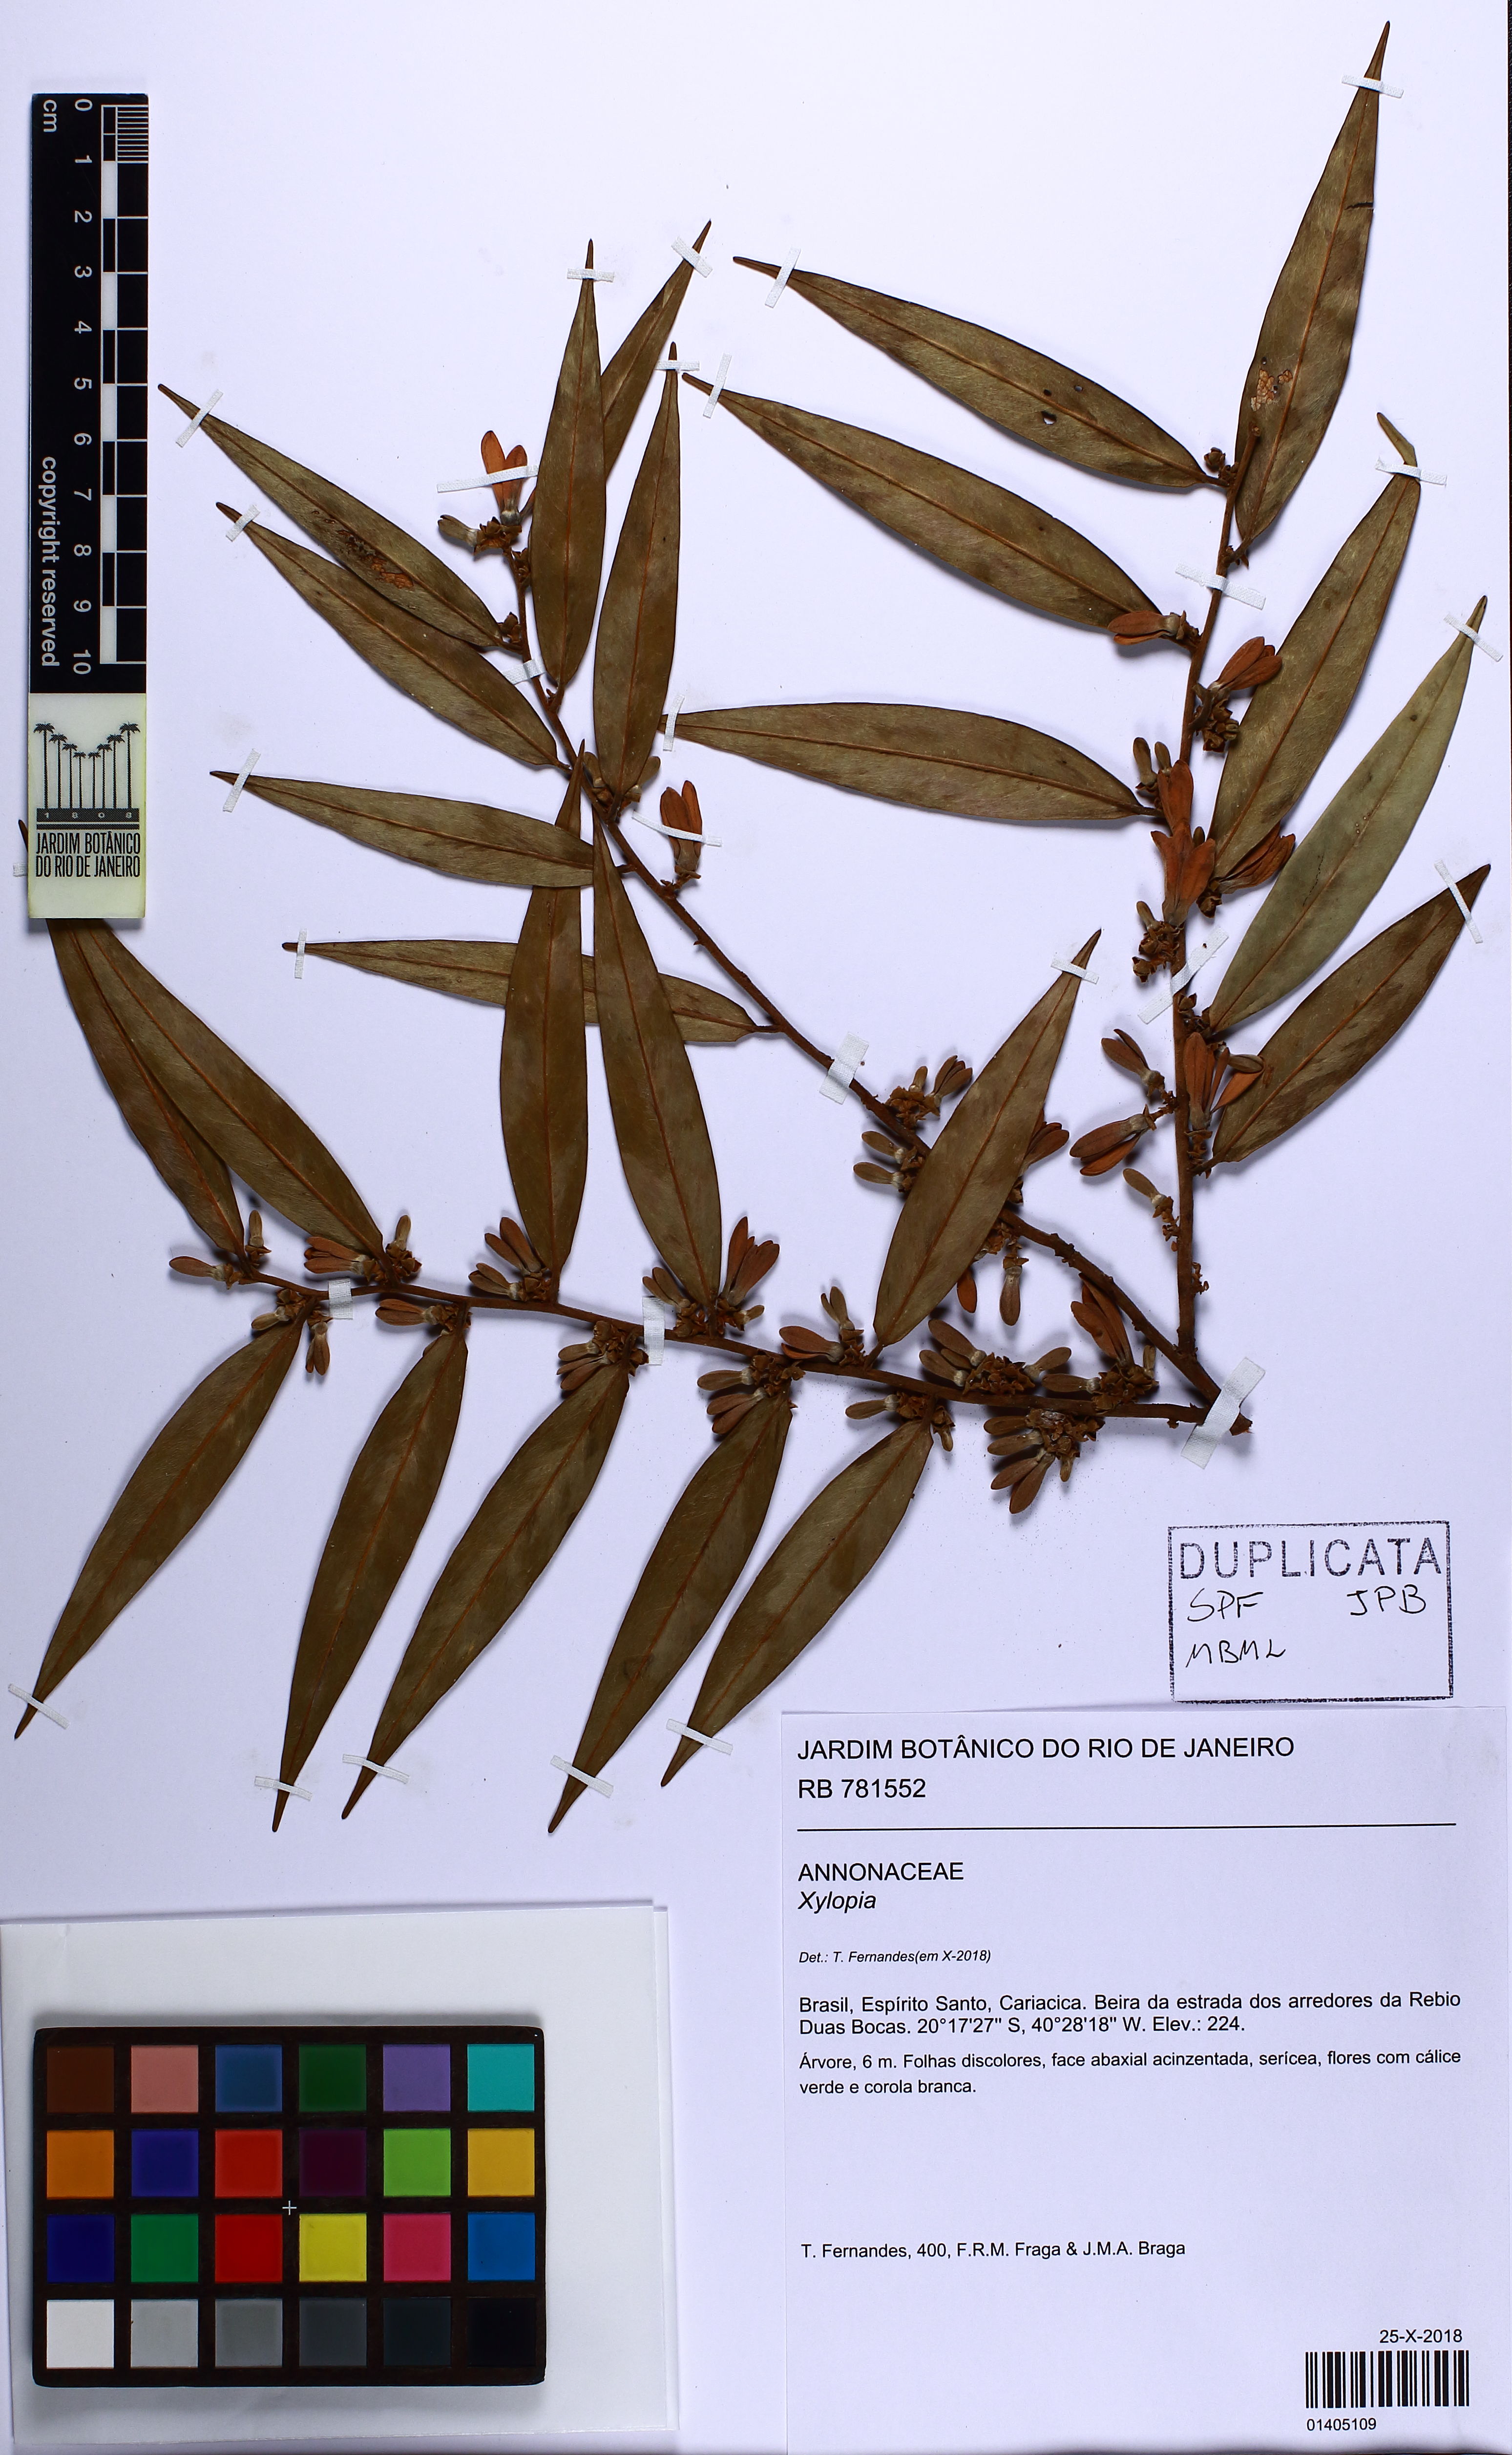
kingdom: Plantae
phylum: Tracheophyta
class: Magnoliopsida
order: Magnoliales
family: Annonaceae
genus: Xylopia
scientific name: Xylopia
